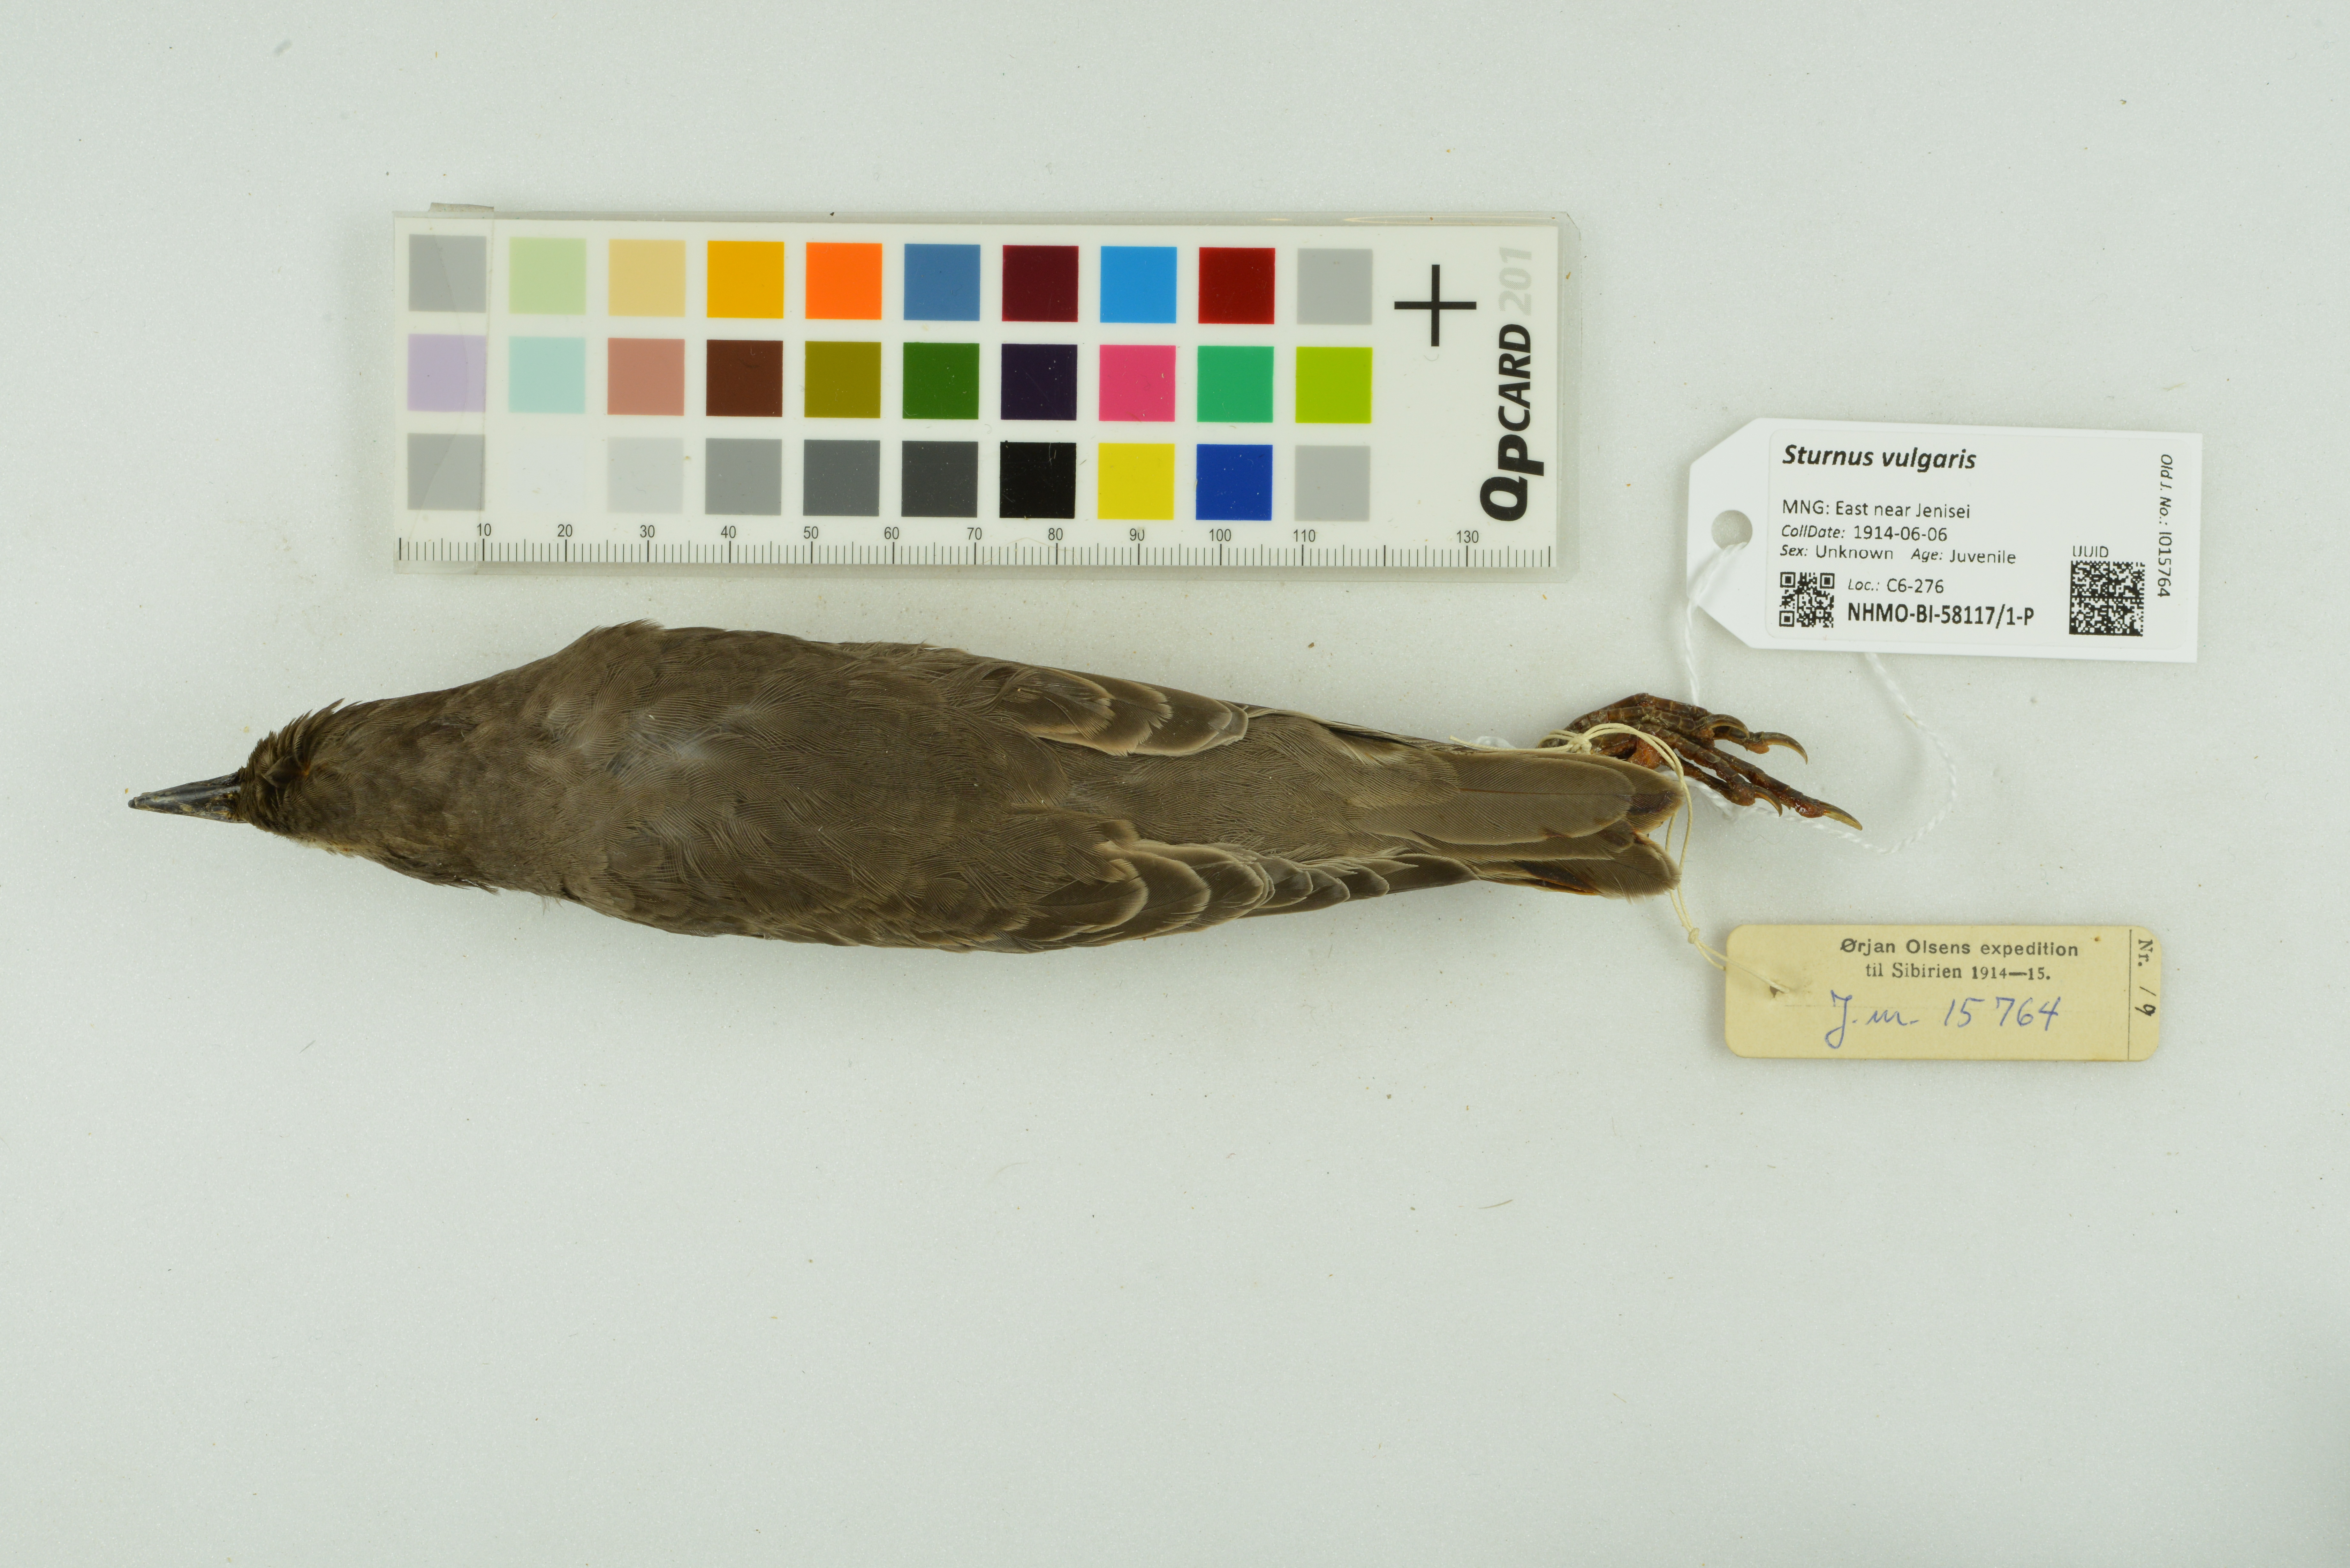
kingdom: Animalia
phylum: Chordata
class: Aves
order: Passeriformes
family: Sturnidae
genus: Sturnus
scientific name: Sturnus vulgaris
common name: Common starling
